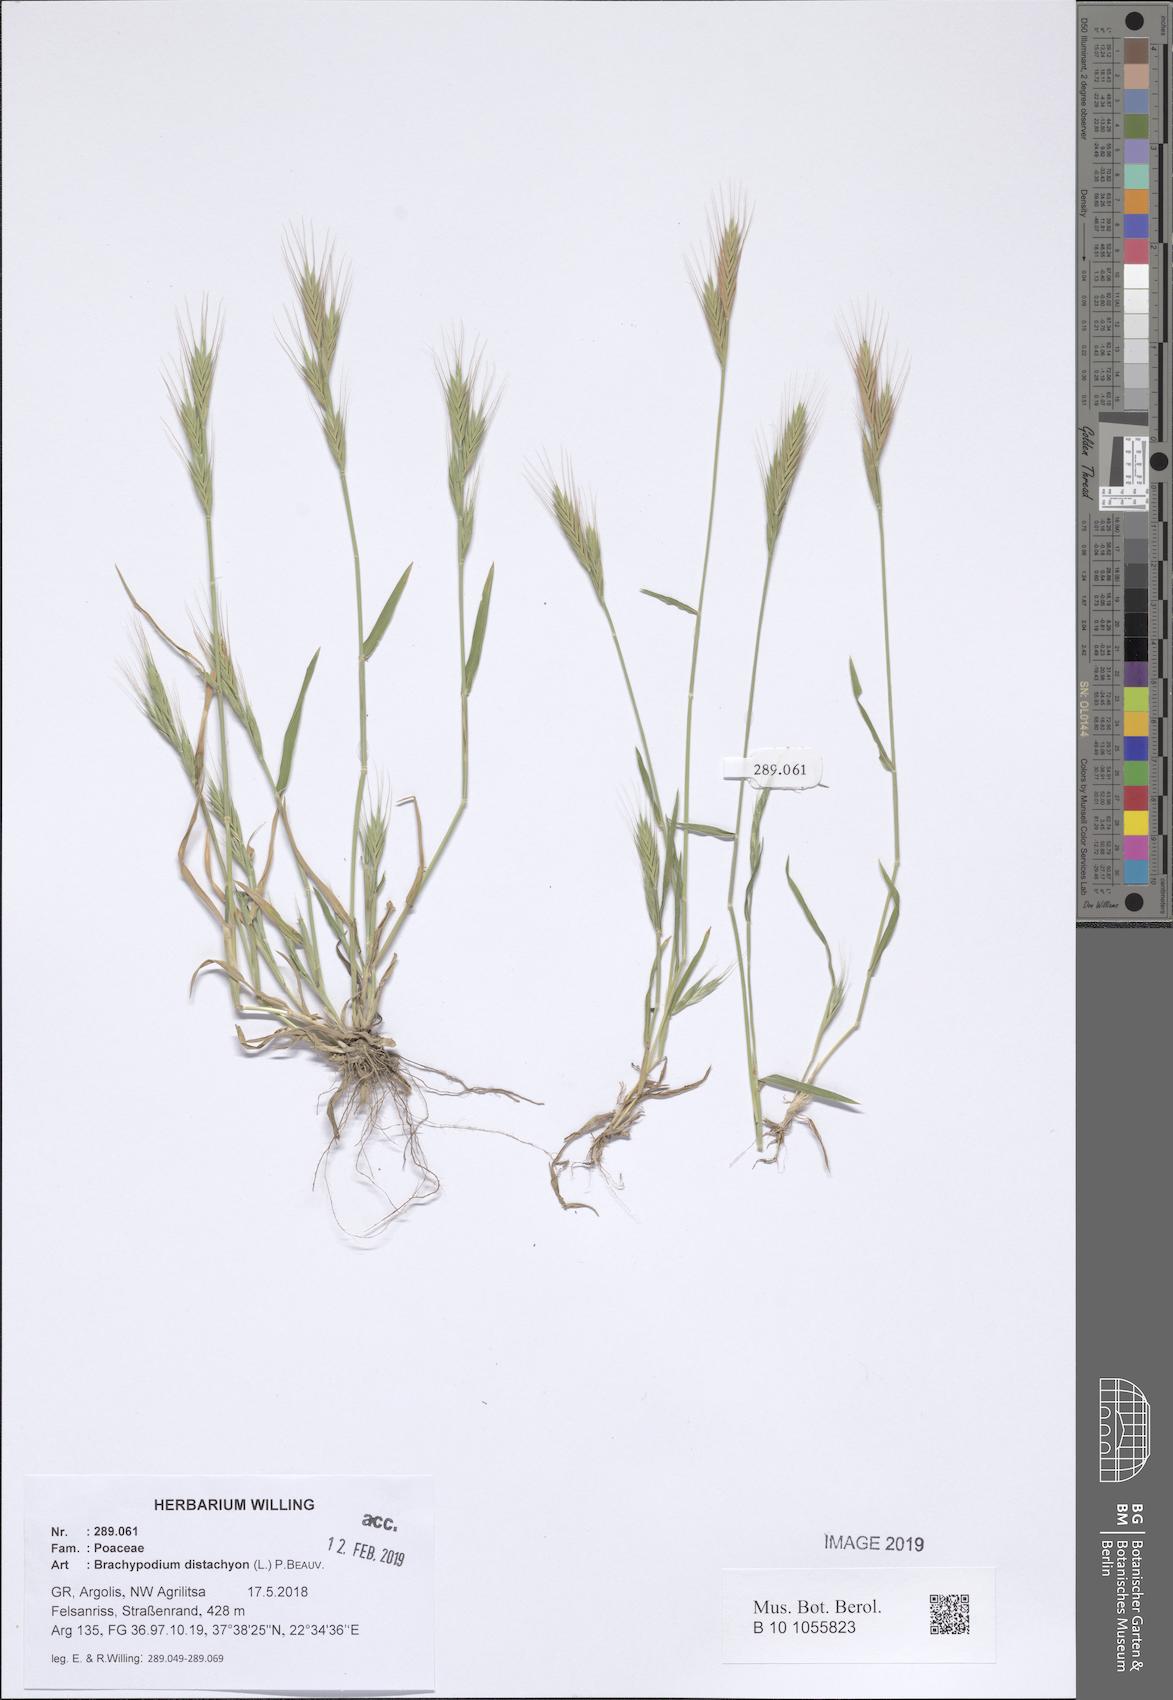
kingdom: Plantae
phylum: Tracheophyta
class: Liliopsida
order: Poales
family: Poaceae
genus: Brachypodium
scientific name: Brachypodium distachyon
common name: Stiff brome
